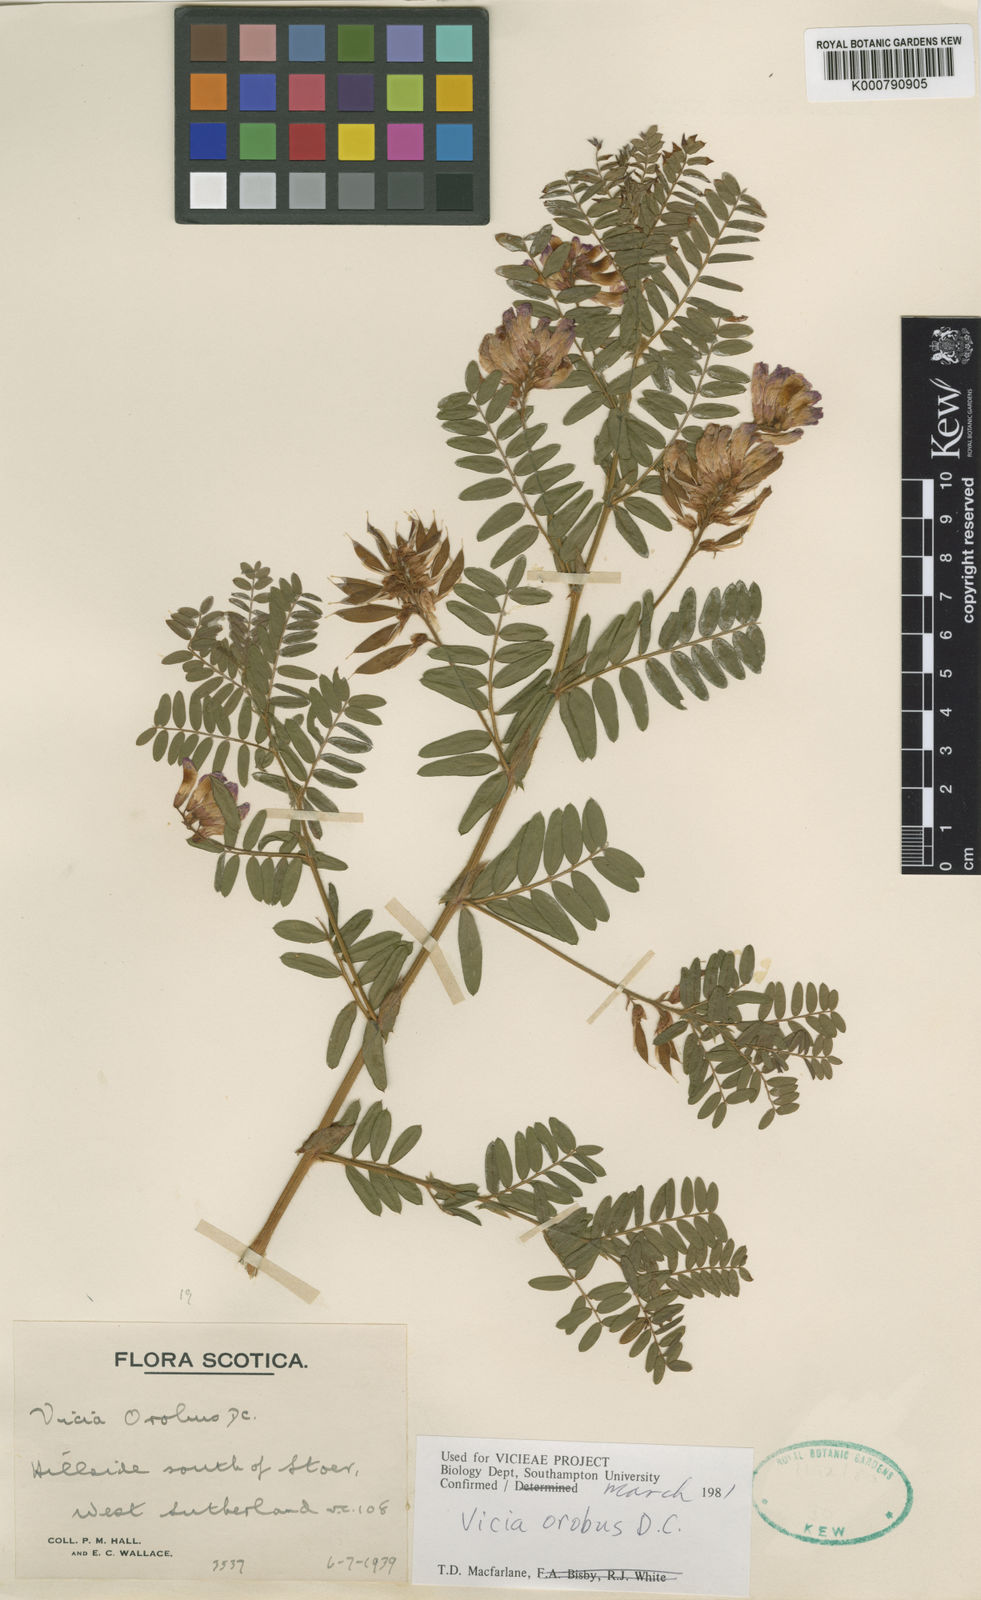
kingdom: Plantae
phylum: Tracheophyta
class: Magnoliopsida
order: Fabales
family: Fabaceae
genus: Vicia
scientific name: Vicia orobus
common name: Wood bitter-vetch
